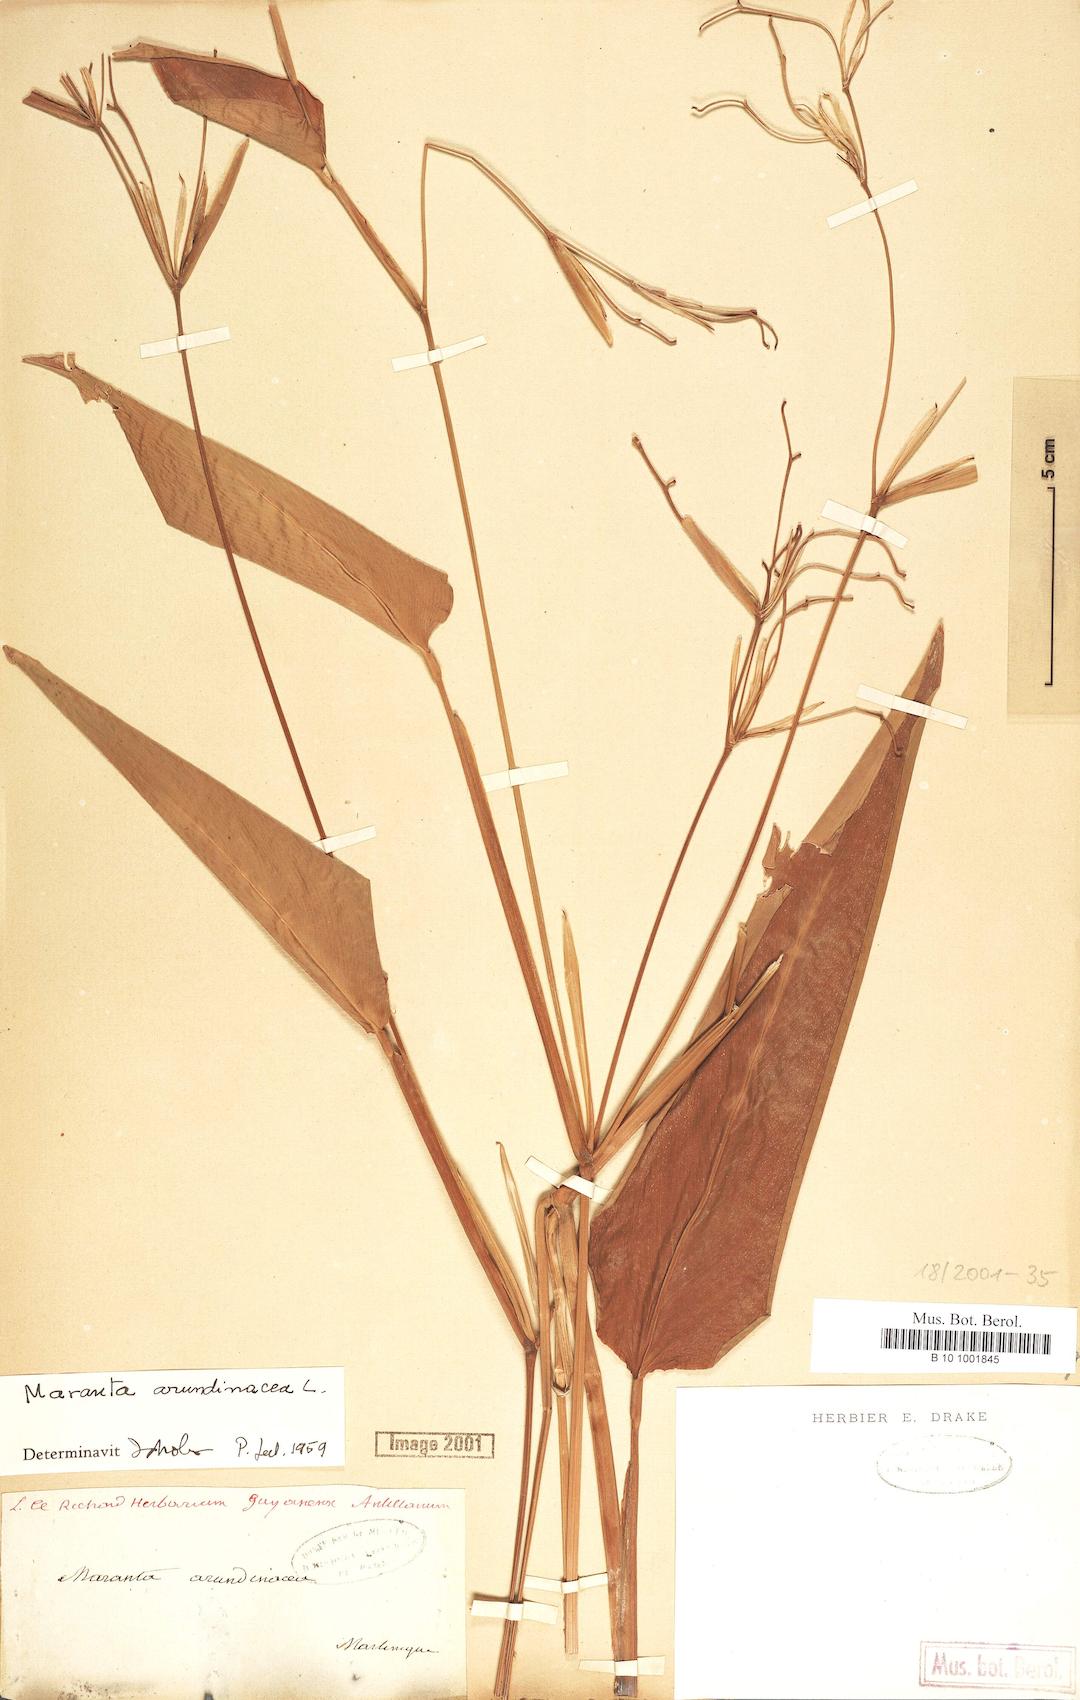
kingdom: Plantae
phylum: Tracheophyta
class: Liliopsida
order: Zingiberales
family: Marantaceae
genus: Maranta
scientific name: Maranta arundinacea
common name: Arrowroot
